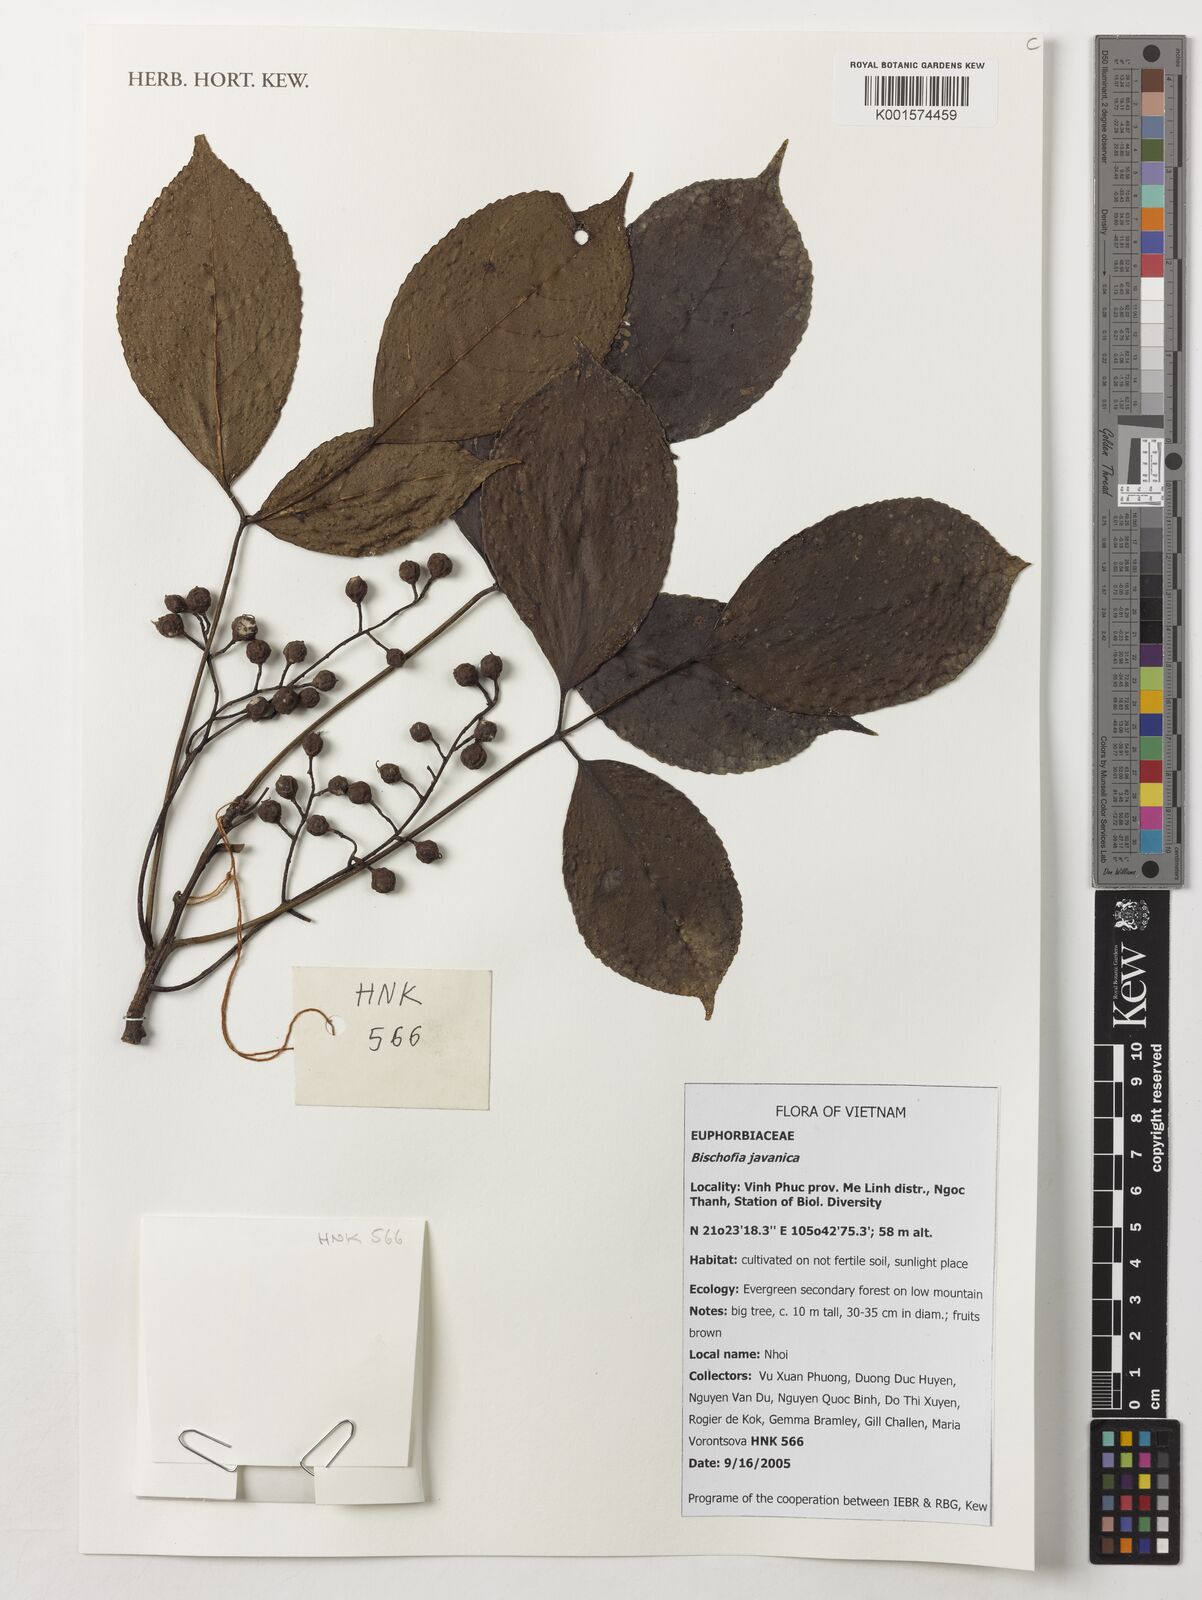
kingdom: Plantae
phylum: Tracheophyta
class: Magnoliopsida
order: Malpighiales
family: Phyllanthaceae
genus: Bischofia
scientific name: Bischofia javanica
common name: Javanese bishopwood
